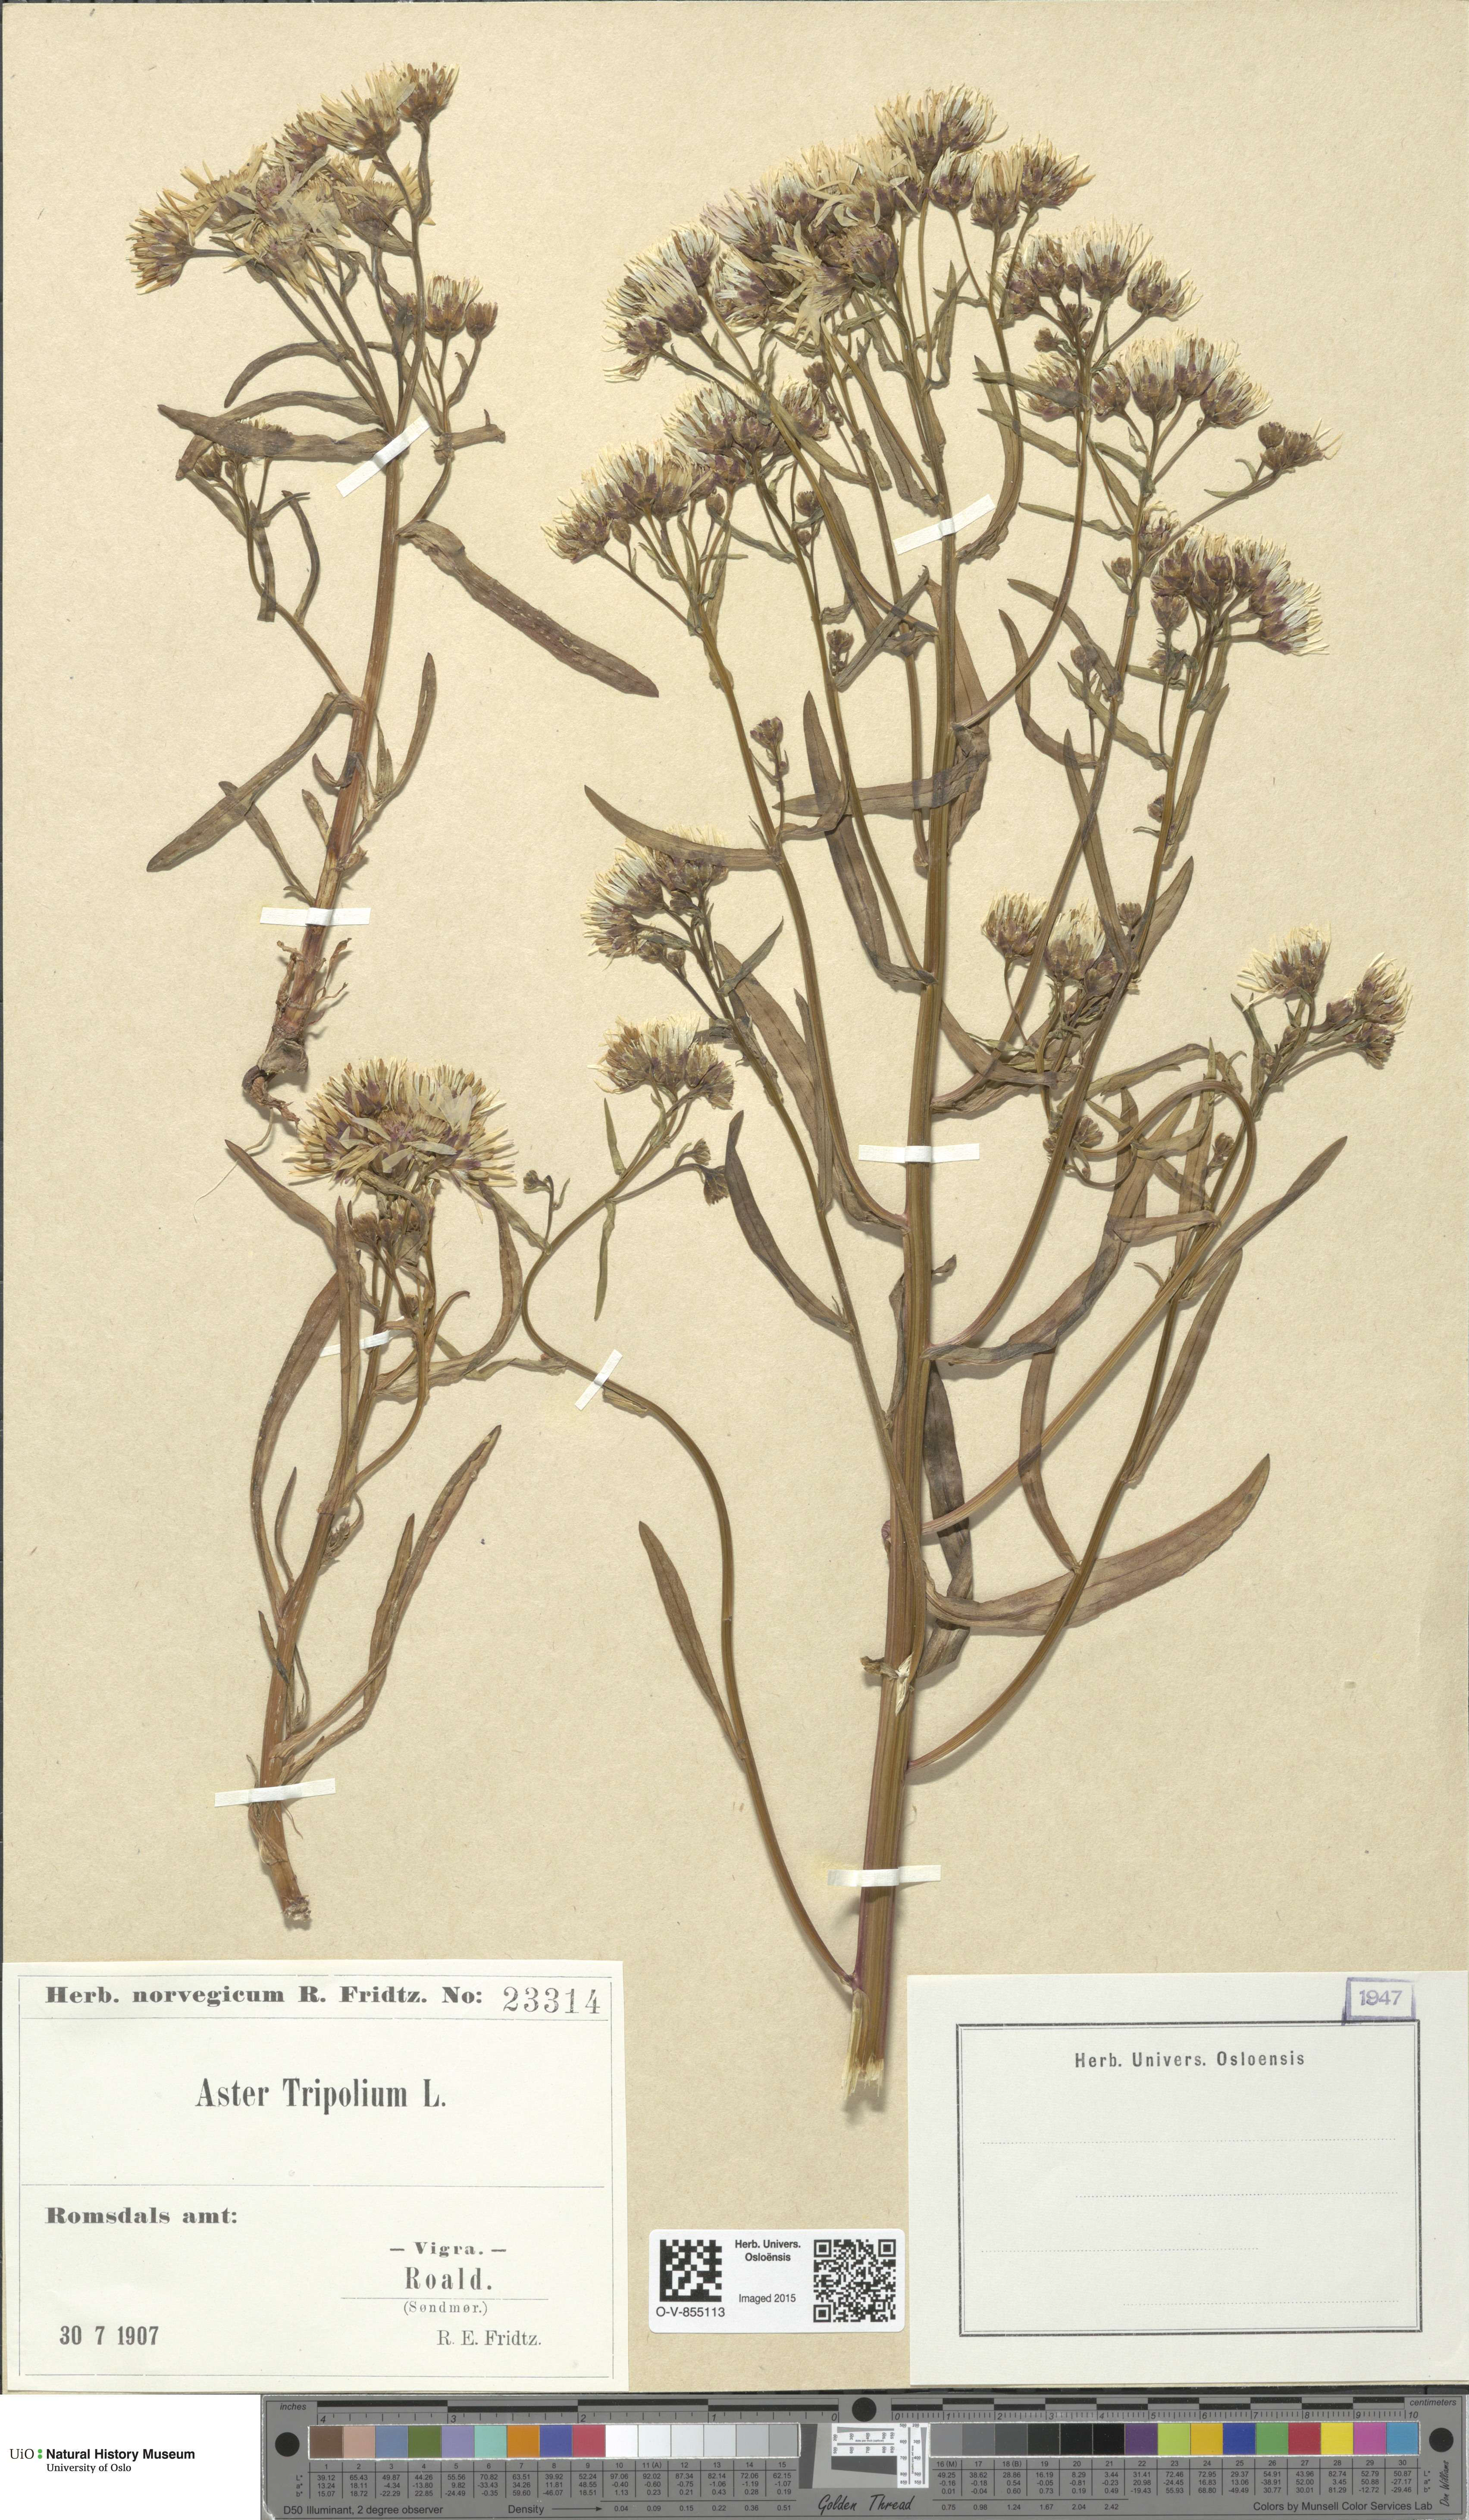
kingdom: Plantae
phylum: Tracheophyta
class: Magnoliopsida
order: Asterales
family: Asteraceae
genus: Tripolium
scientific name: Tripolium pannonicum
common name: Sea aster
